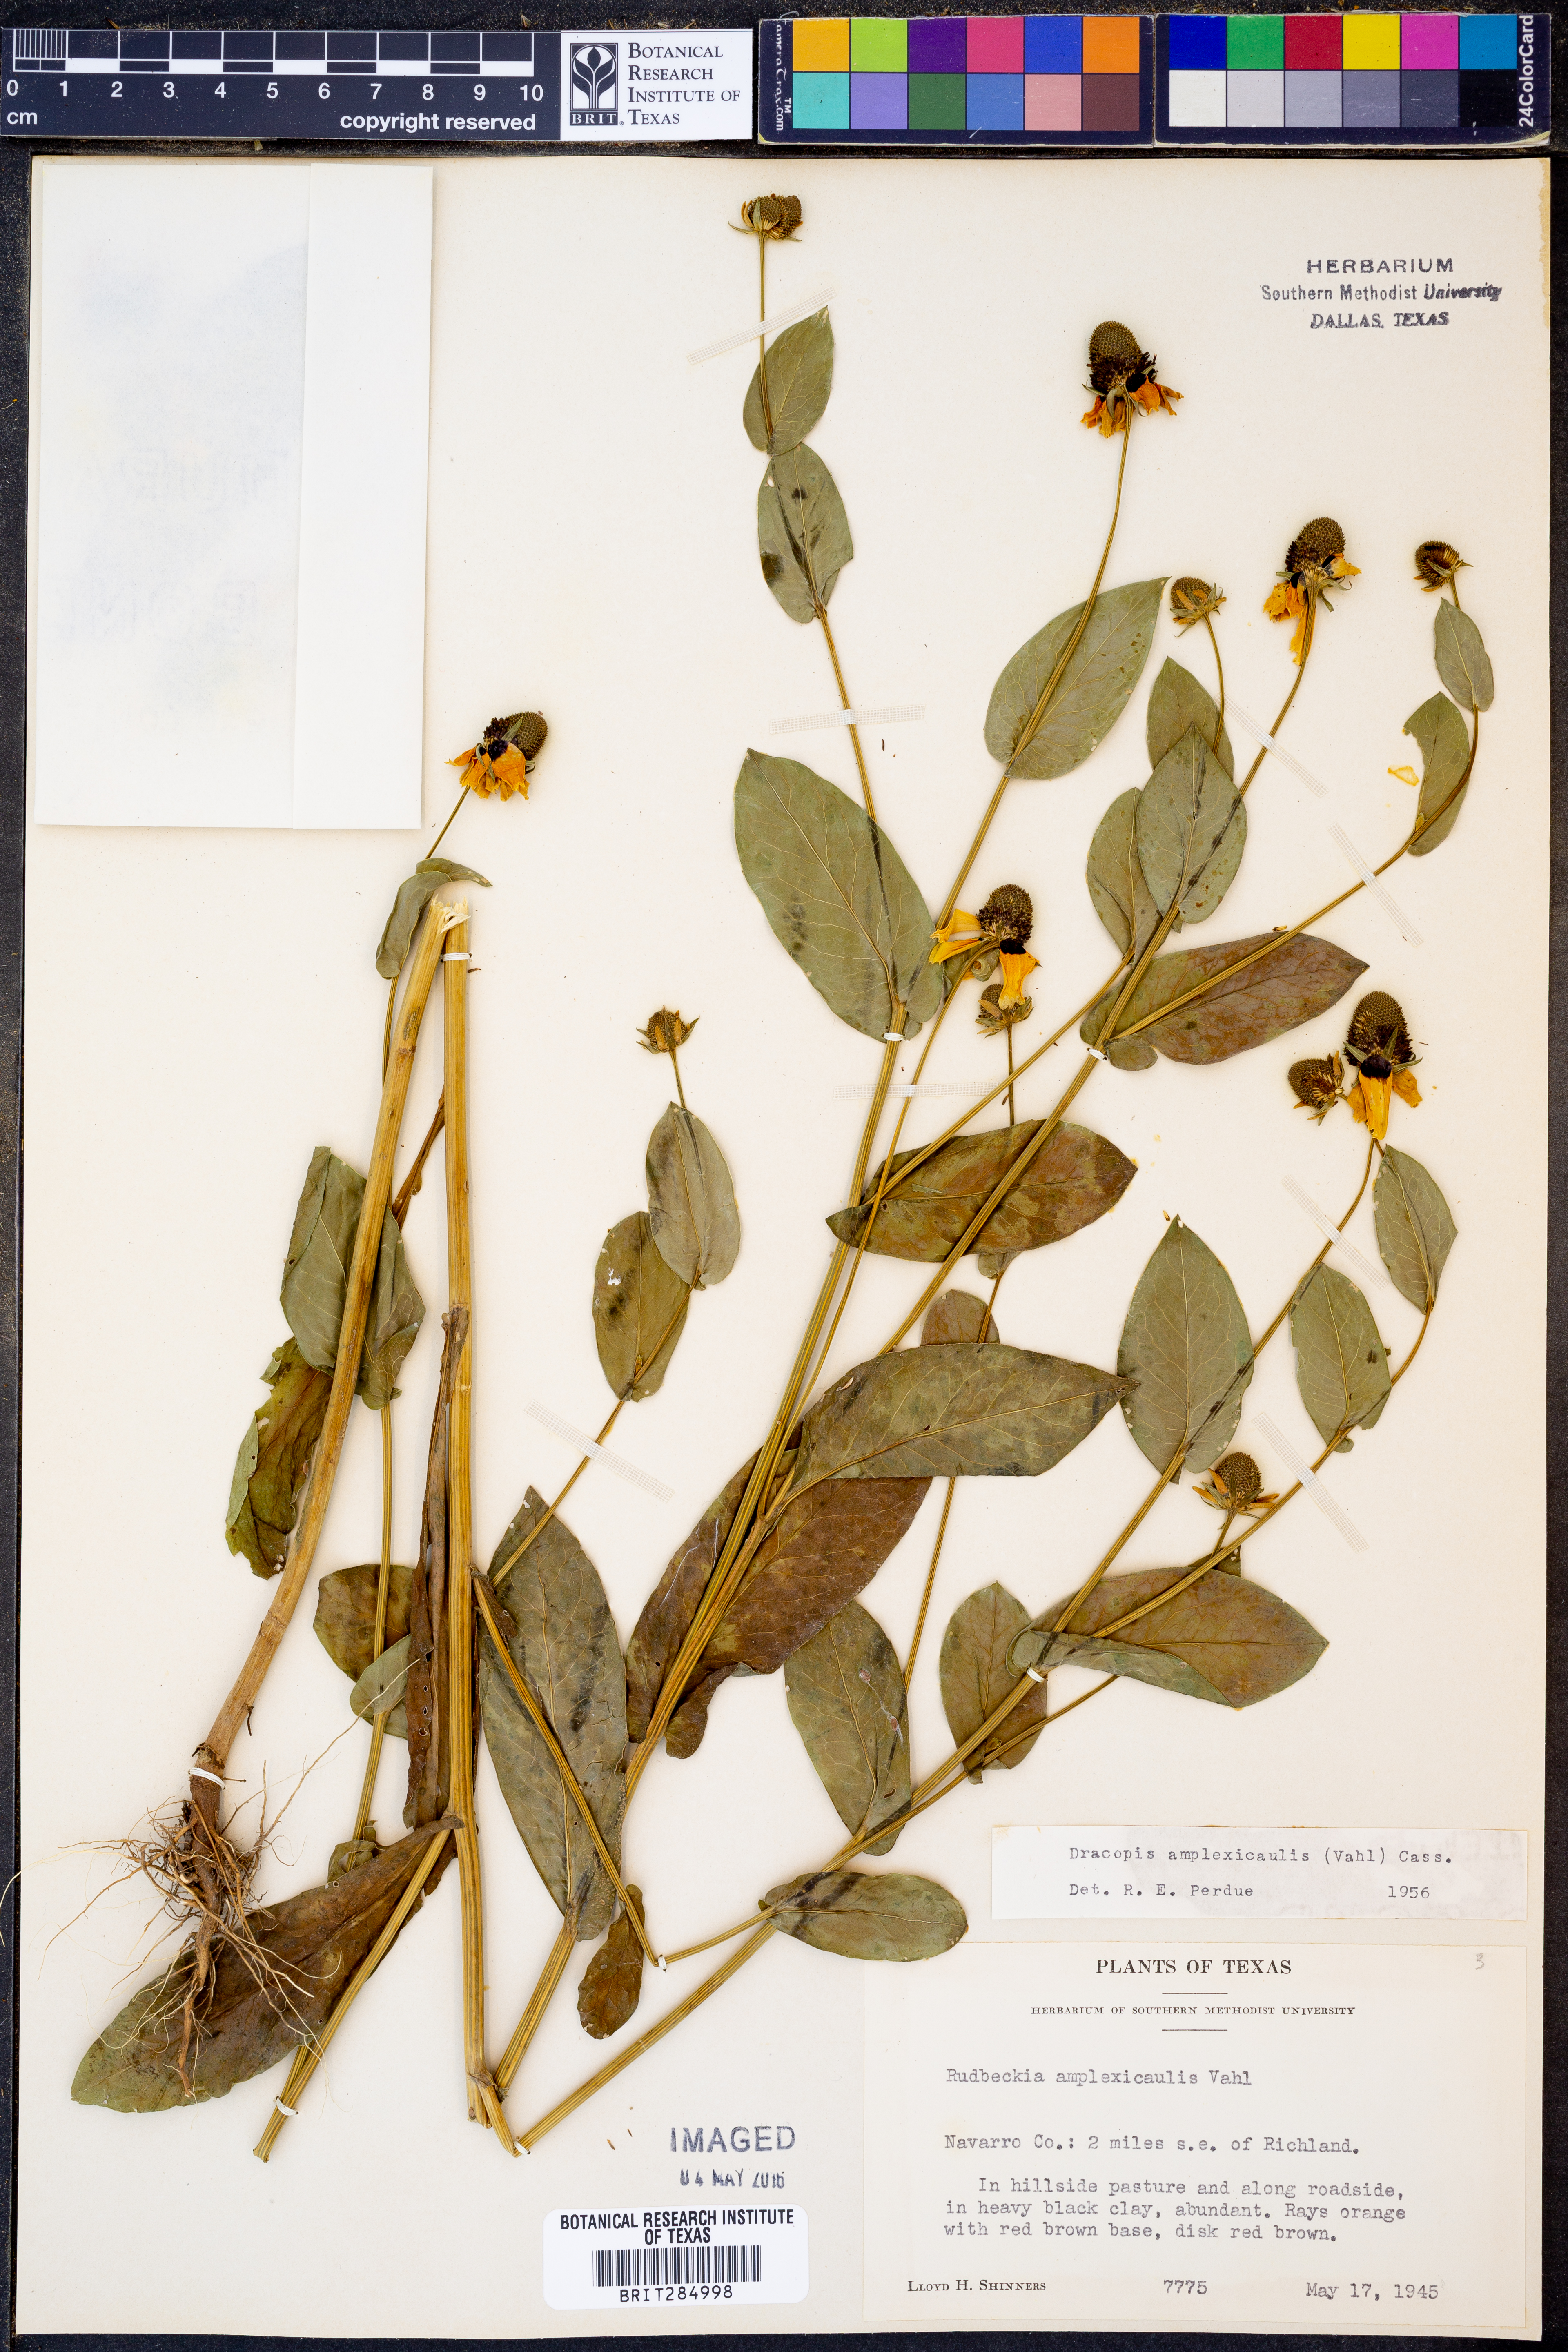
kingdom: Plantae
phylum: Tracheophyta
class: Magnoliopsida
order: Asterales
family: Asteraceae
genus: Rudbeckia
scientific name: Rudbeckia amplexicaulis
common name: Clasping-leaf coneflower
